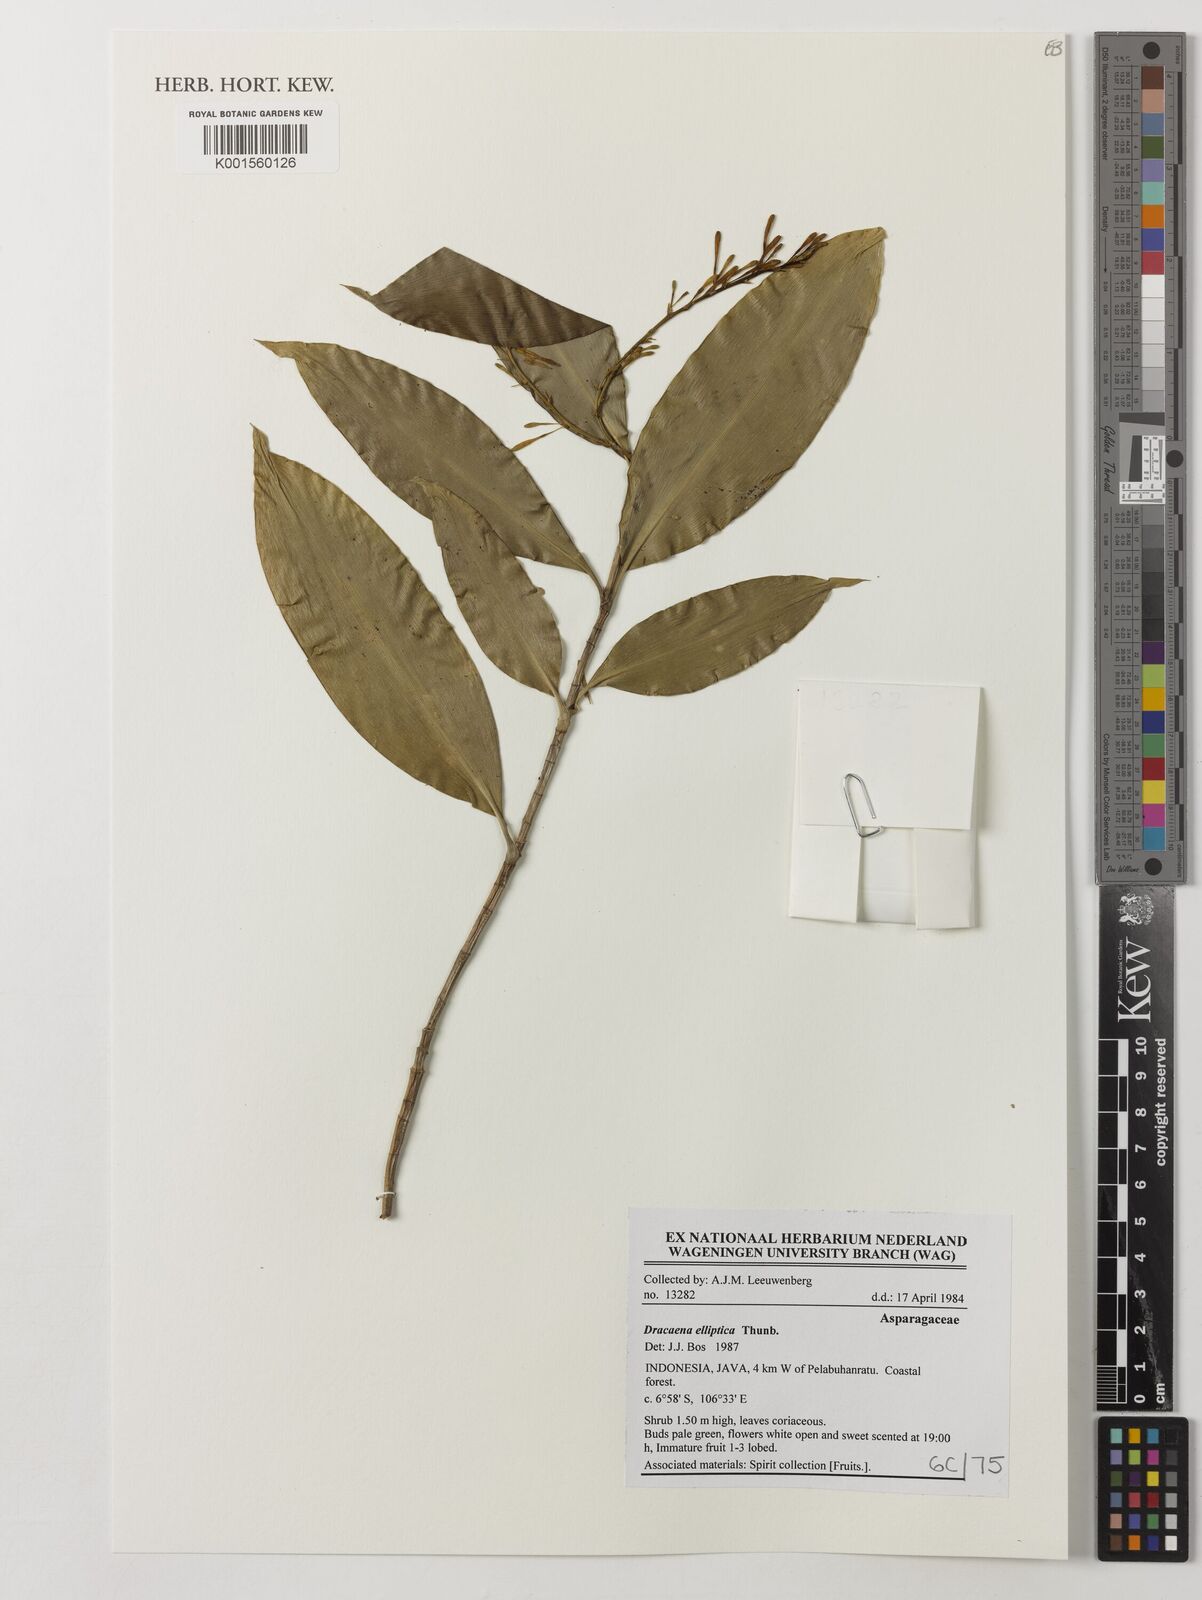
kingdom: Plantae
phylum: Tracheophyta
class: Liliopsida
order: Asparagales
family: Asparagaceae
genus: Dracaena
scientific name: Dracaena elliptica
